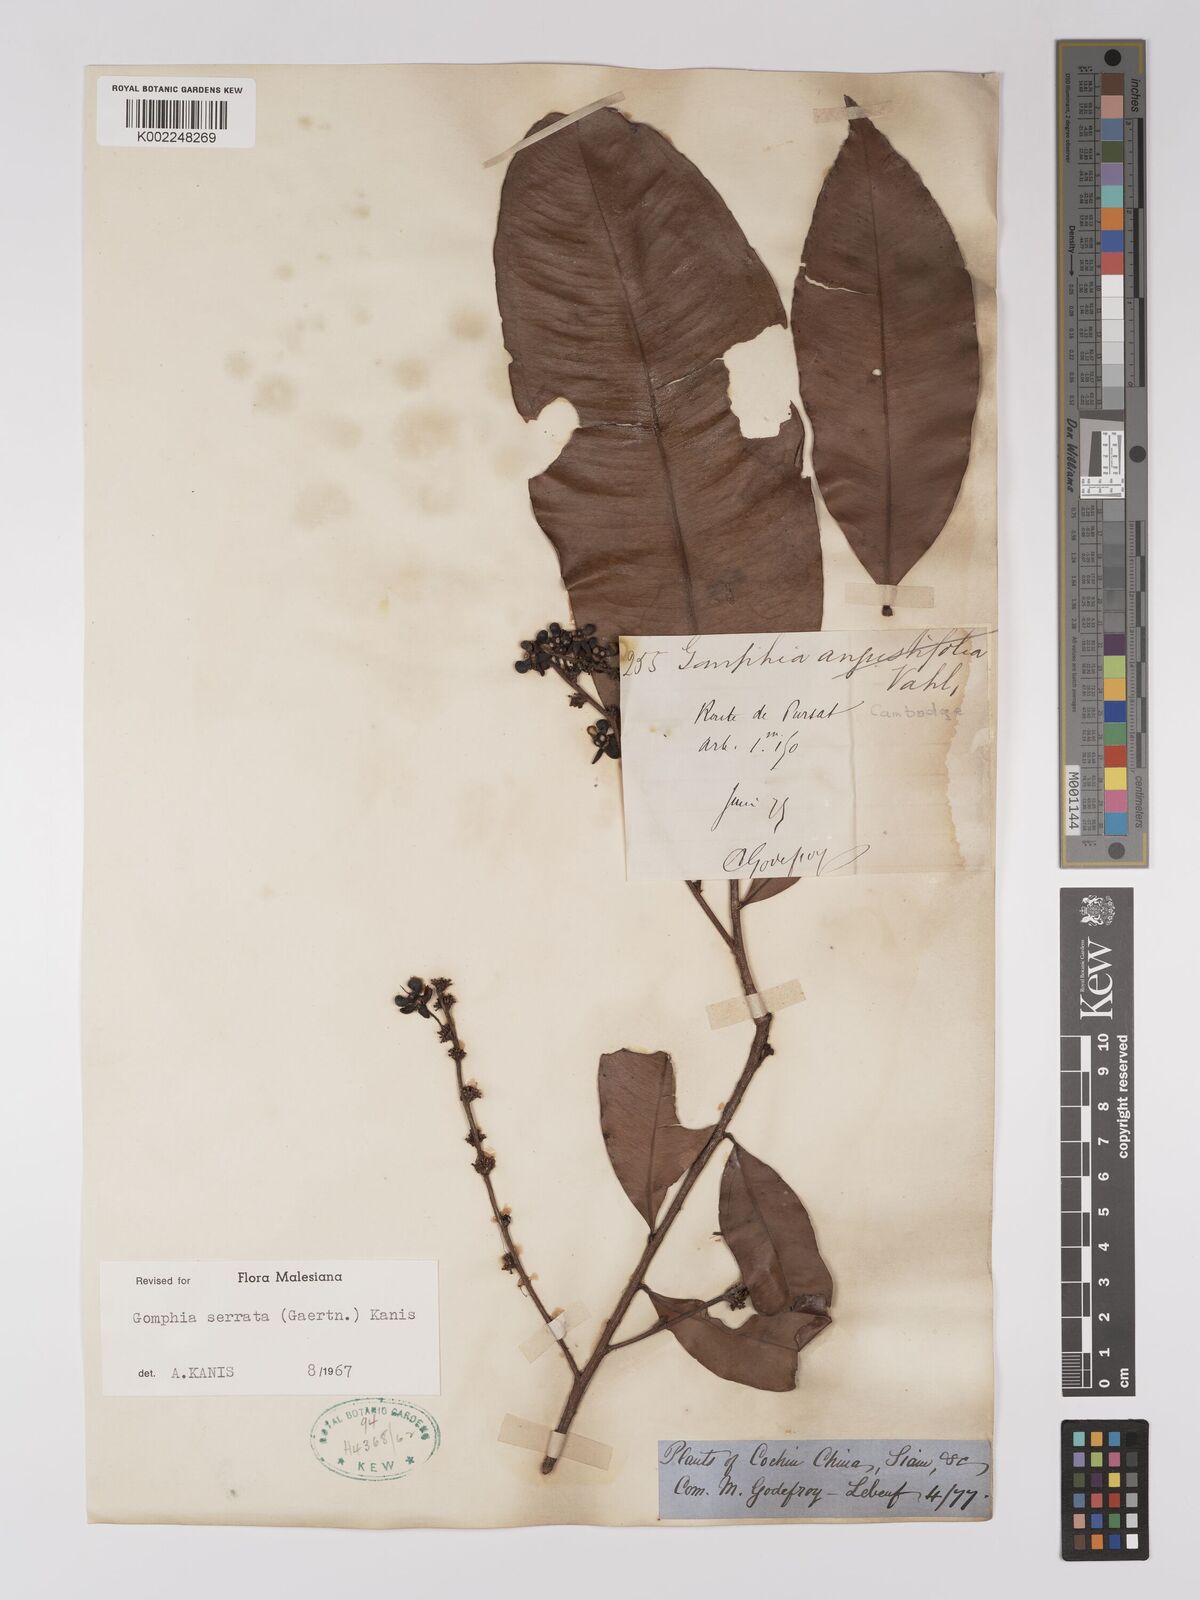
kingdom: Plantae
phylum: Tracheophyta
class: Magnoliopsida
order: Malpighiales
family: Ochnaceae
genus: Gomphia
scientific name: Gomphia serrata
